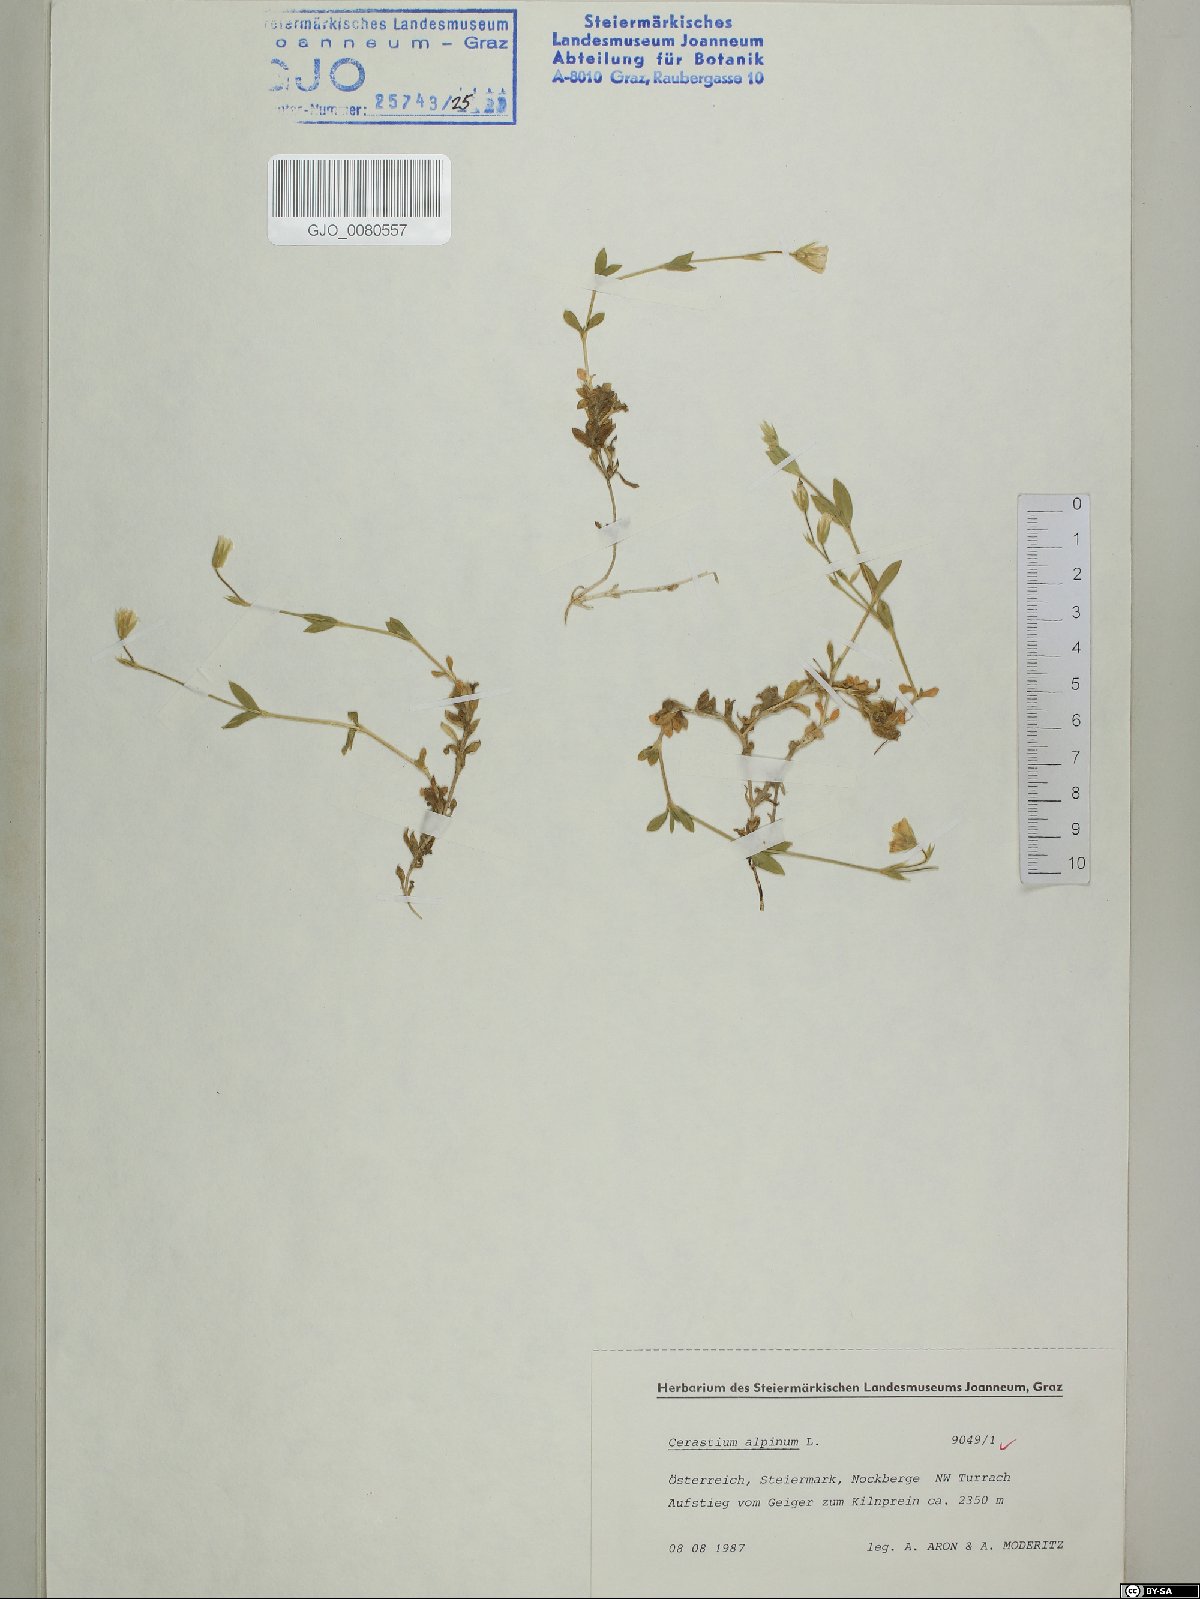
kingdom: Plantae
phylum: Tracheophyta
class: Magnoliopsida
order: Caryophyllales
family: Caryophyllaceae
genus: Cerastium
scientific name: Cerastium alpinum
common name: Alpine mouse-ear
